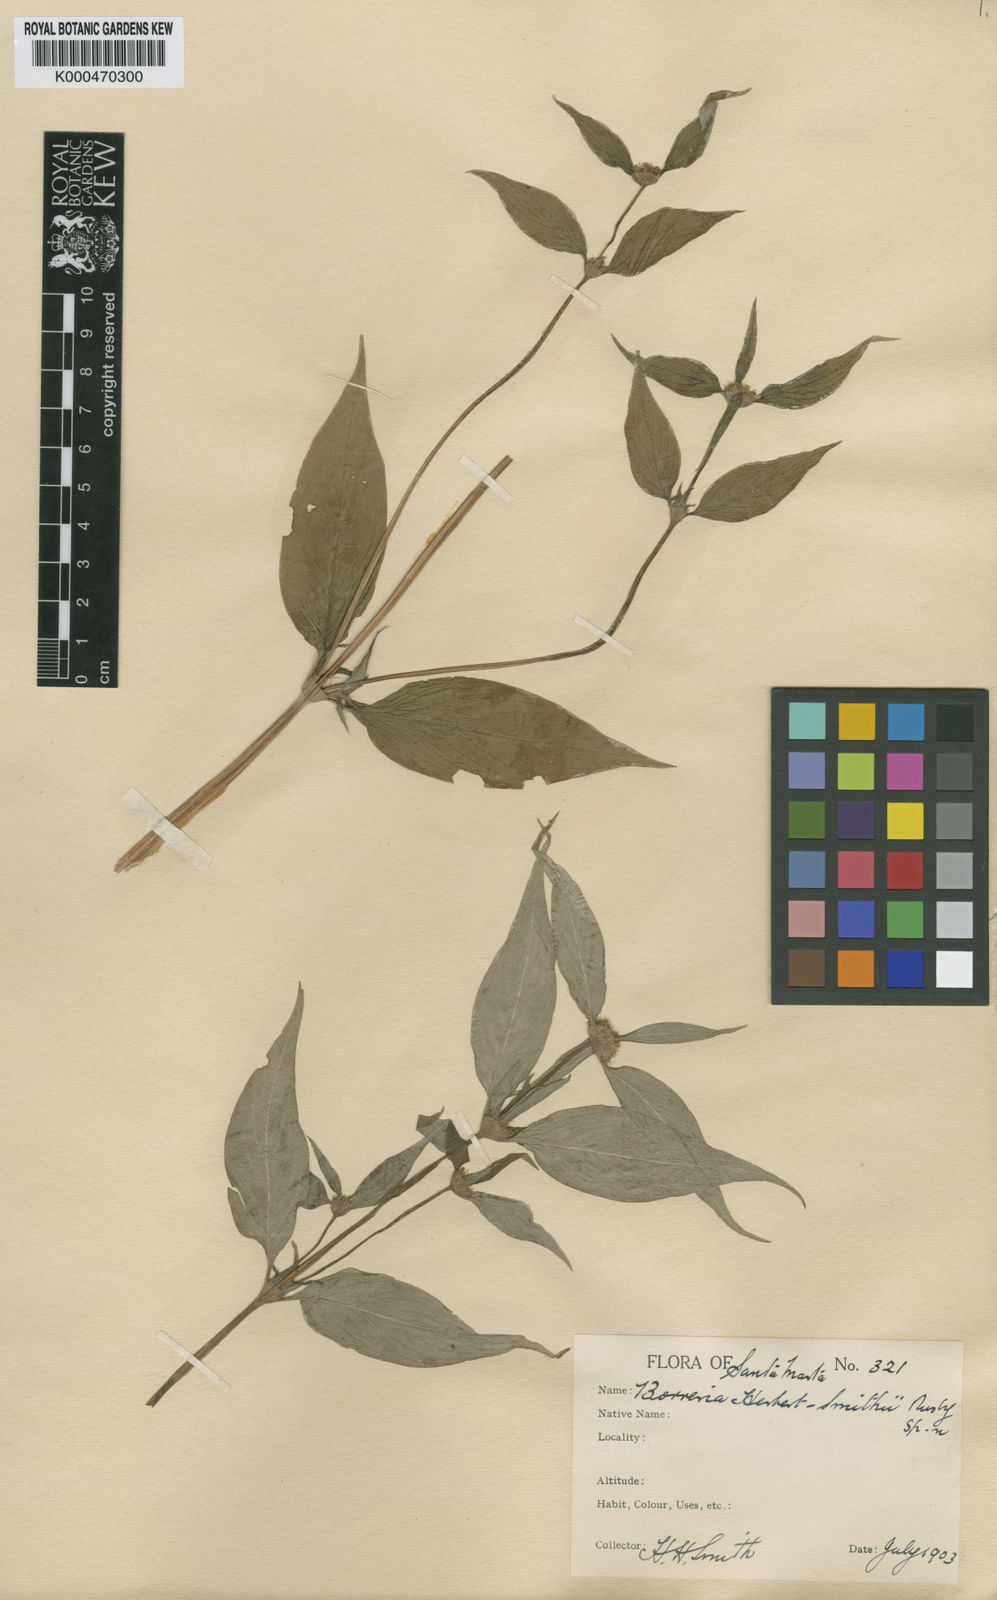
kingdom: Plantae
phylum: Tracheophyta
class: Magnoliopsida
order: Gentianales
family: Rubiaceae
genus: Spermacoce
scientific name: Spermacoce tenuior
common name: River false buttonweed
